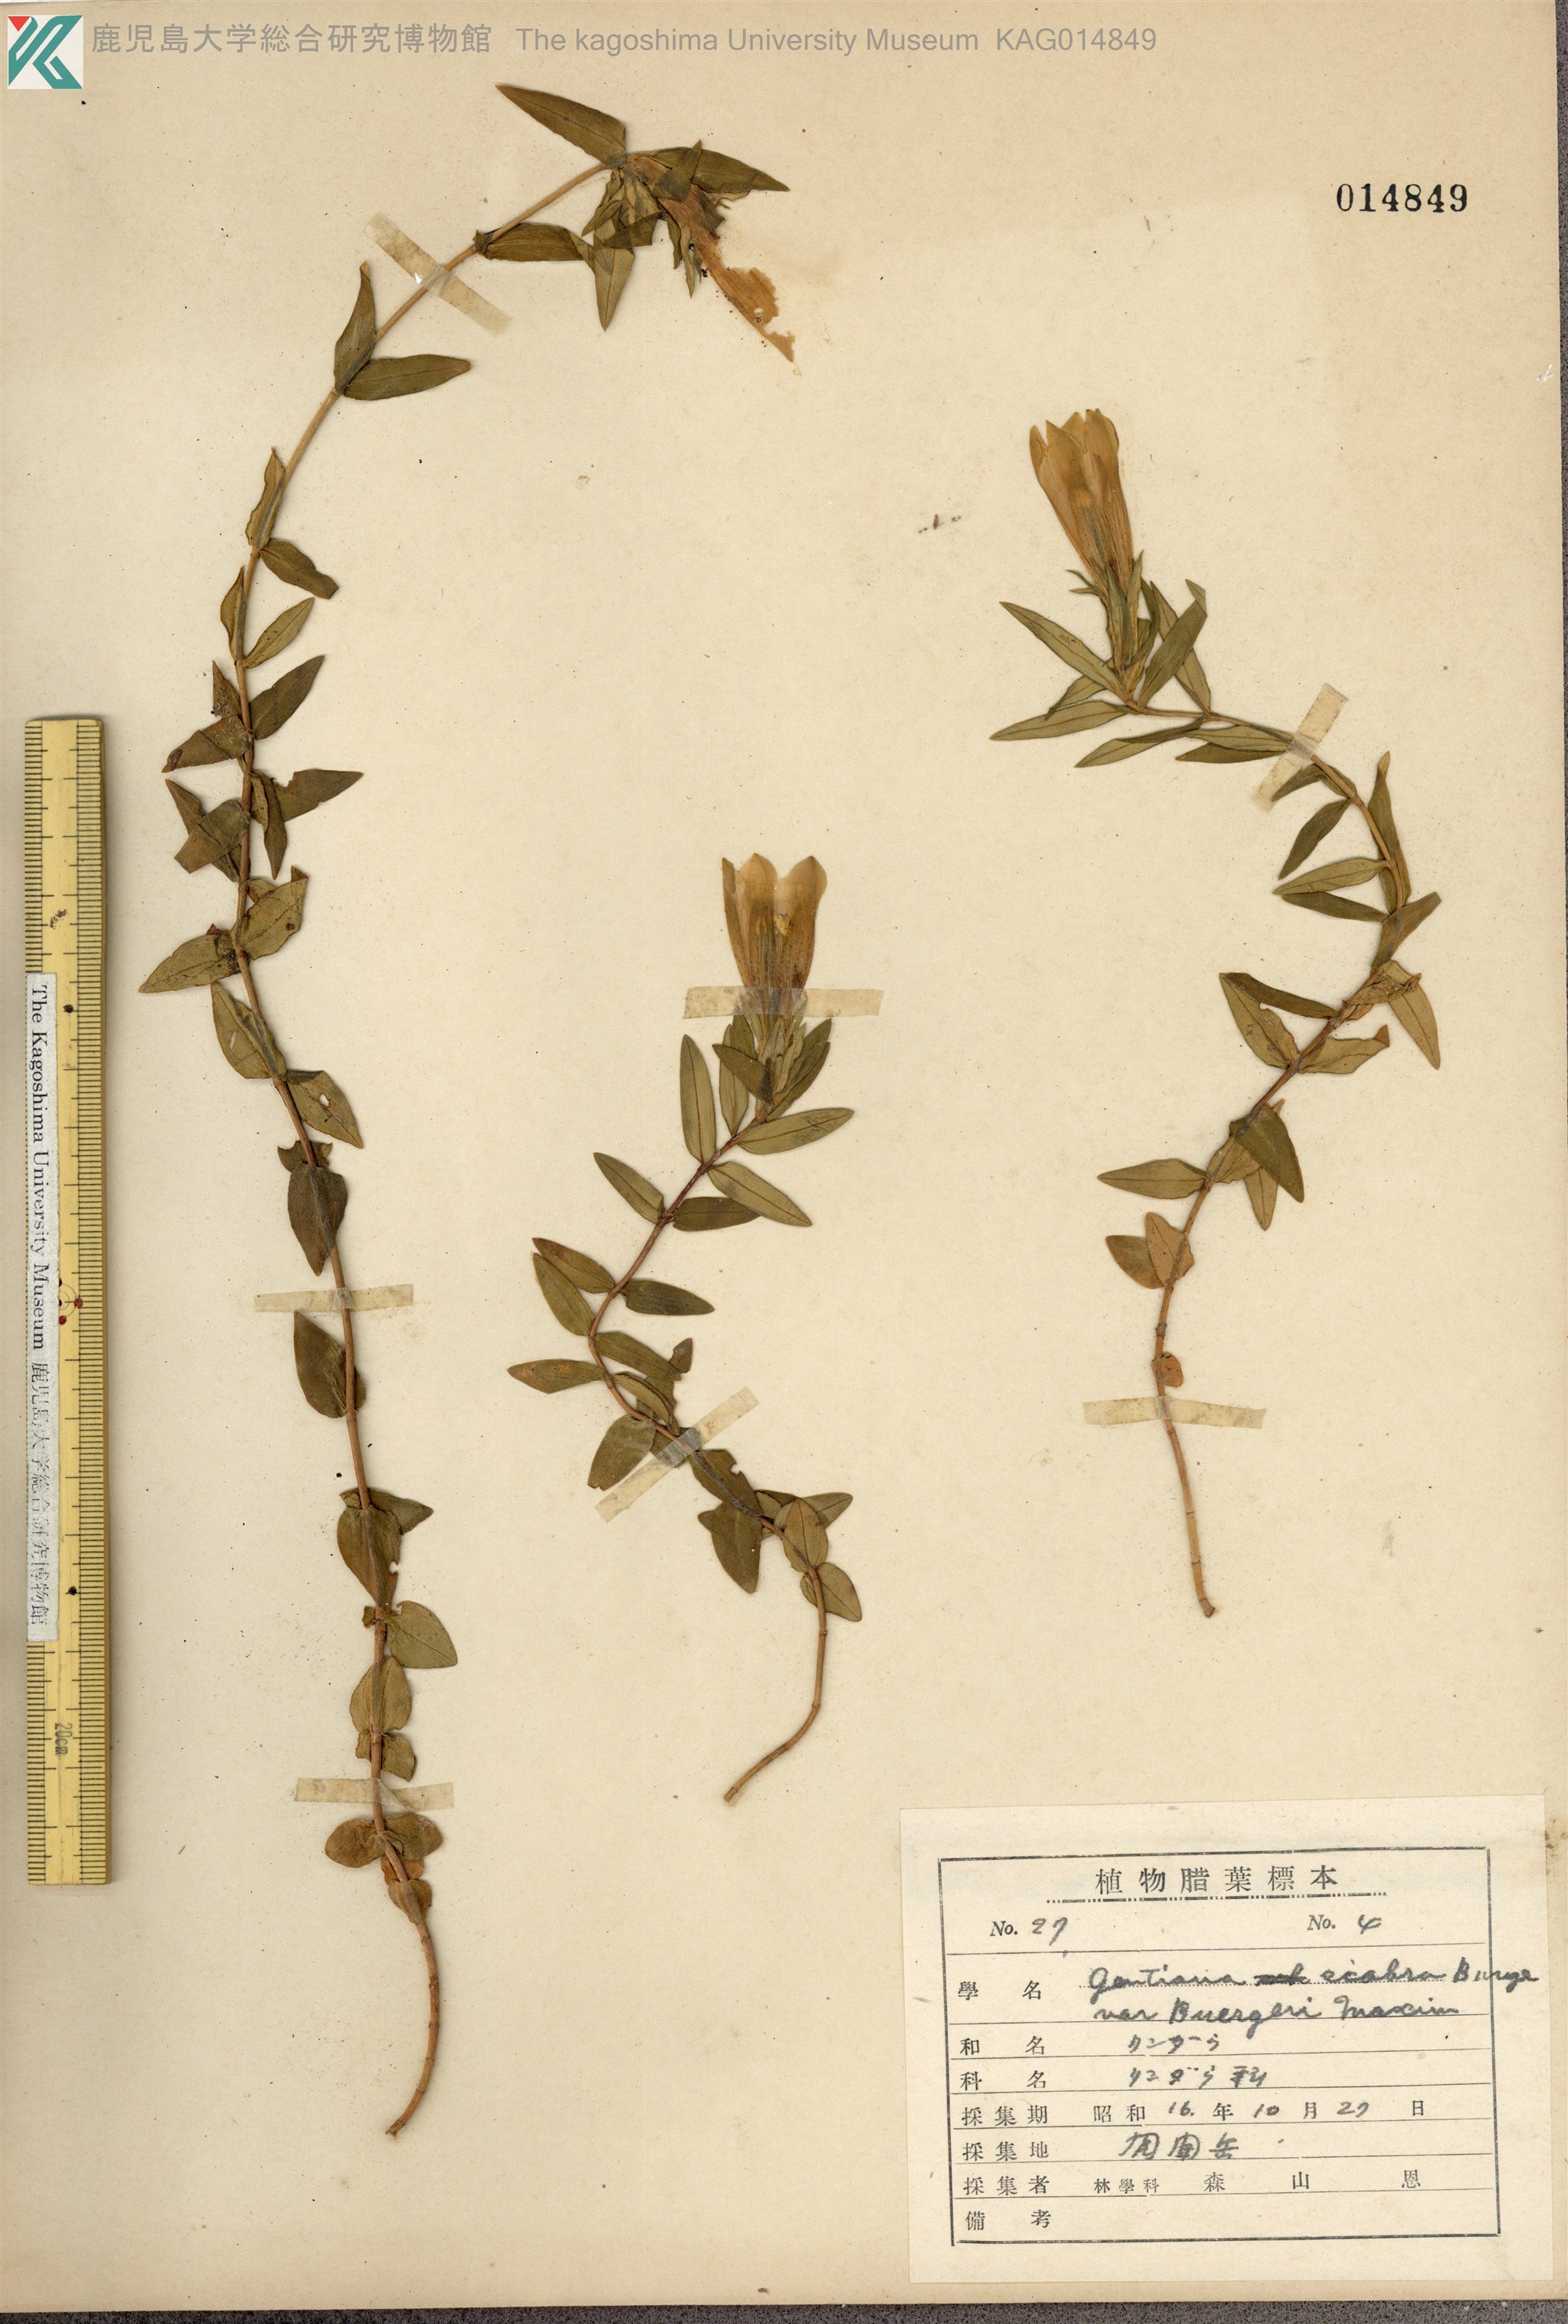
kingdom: Plantae
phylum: Tracheophyta
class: Magnoliopsida
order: Gentianales
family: Gentianaceae
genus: Gentiana
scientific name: Gentiana scabra
